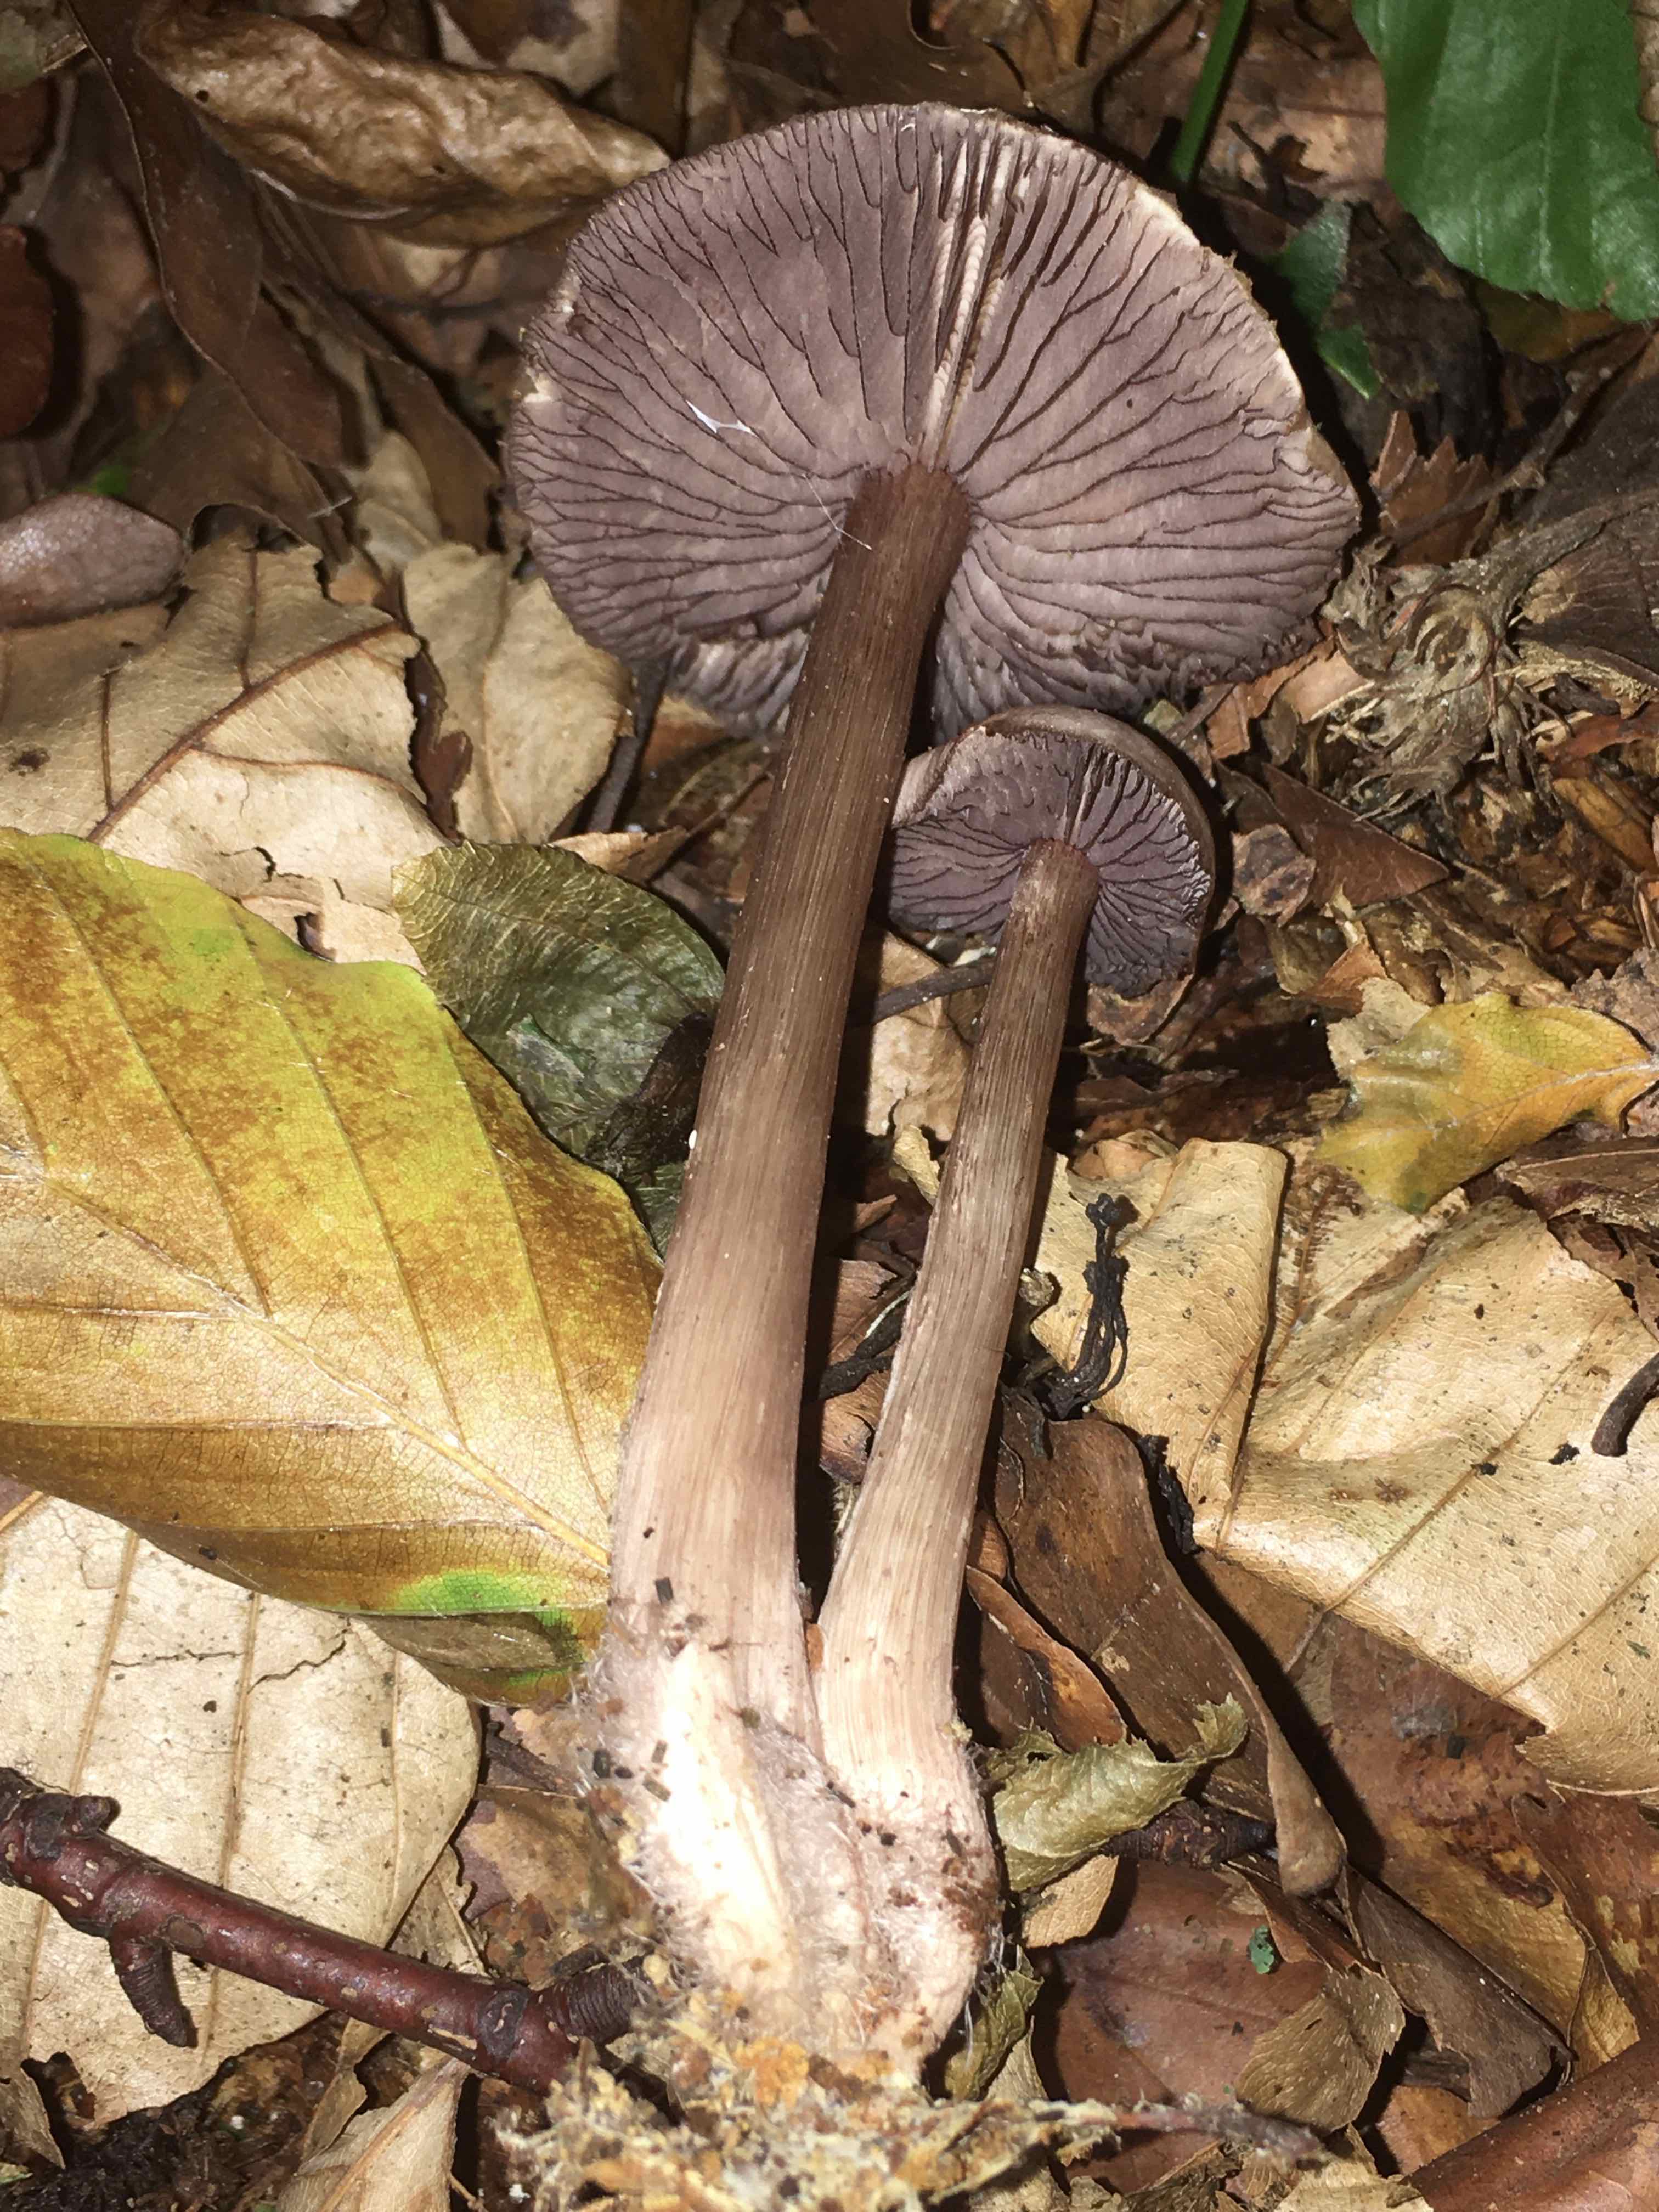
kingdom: Fungi
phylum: Basidiomycota
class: Agaricomycetes
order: Agaricales
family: Mycenaceae
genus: Mycena
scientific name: Mycena pelianthina
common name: mørkbladet huesvamp
